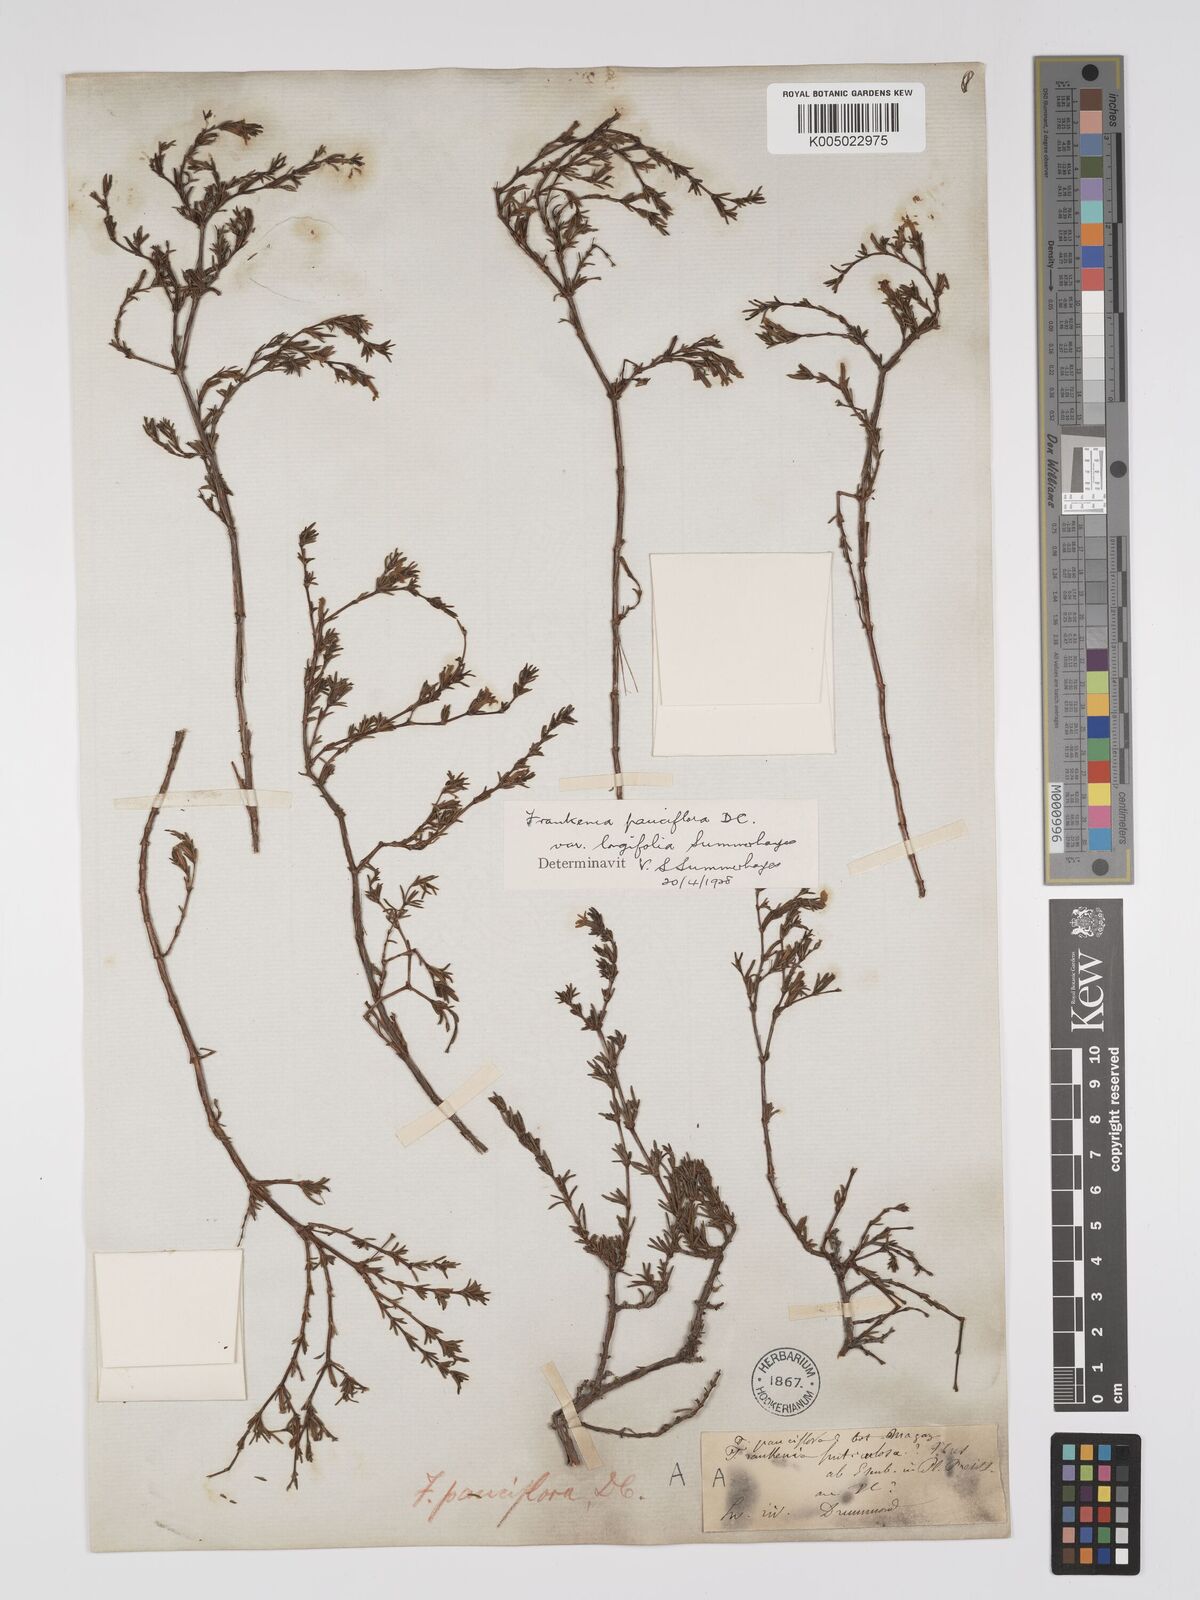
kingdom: Plantae
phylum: Tracheophyta
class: Magnoliopsida
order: Caryophyllales
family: Frankeniaceae
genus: Frankenia
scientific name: Frankenia pauciflora
